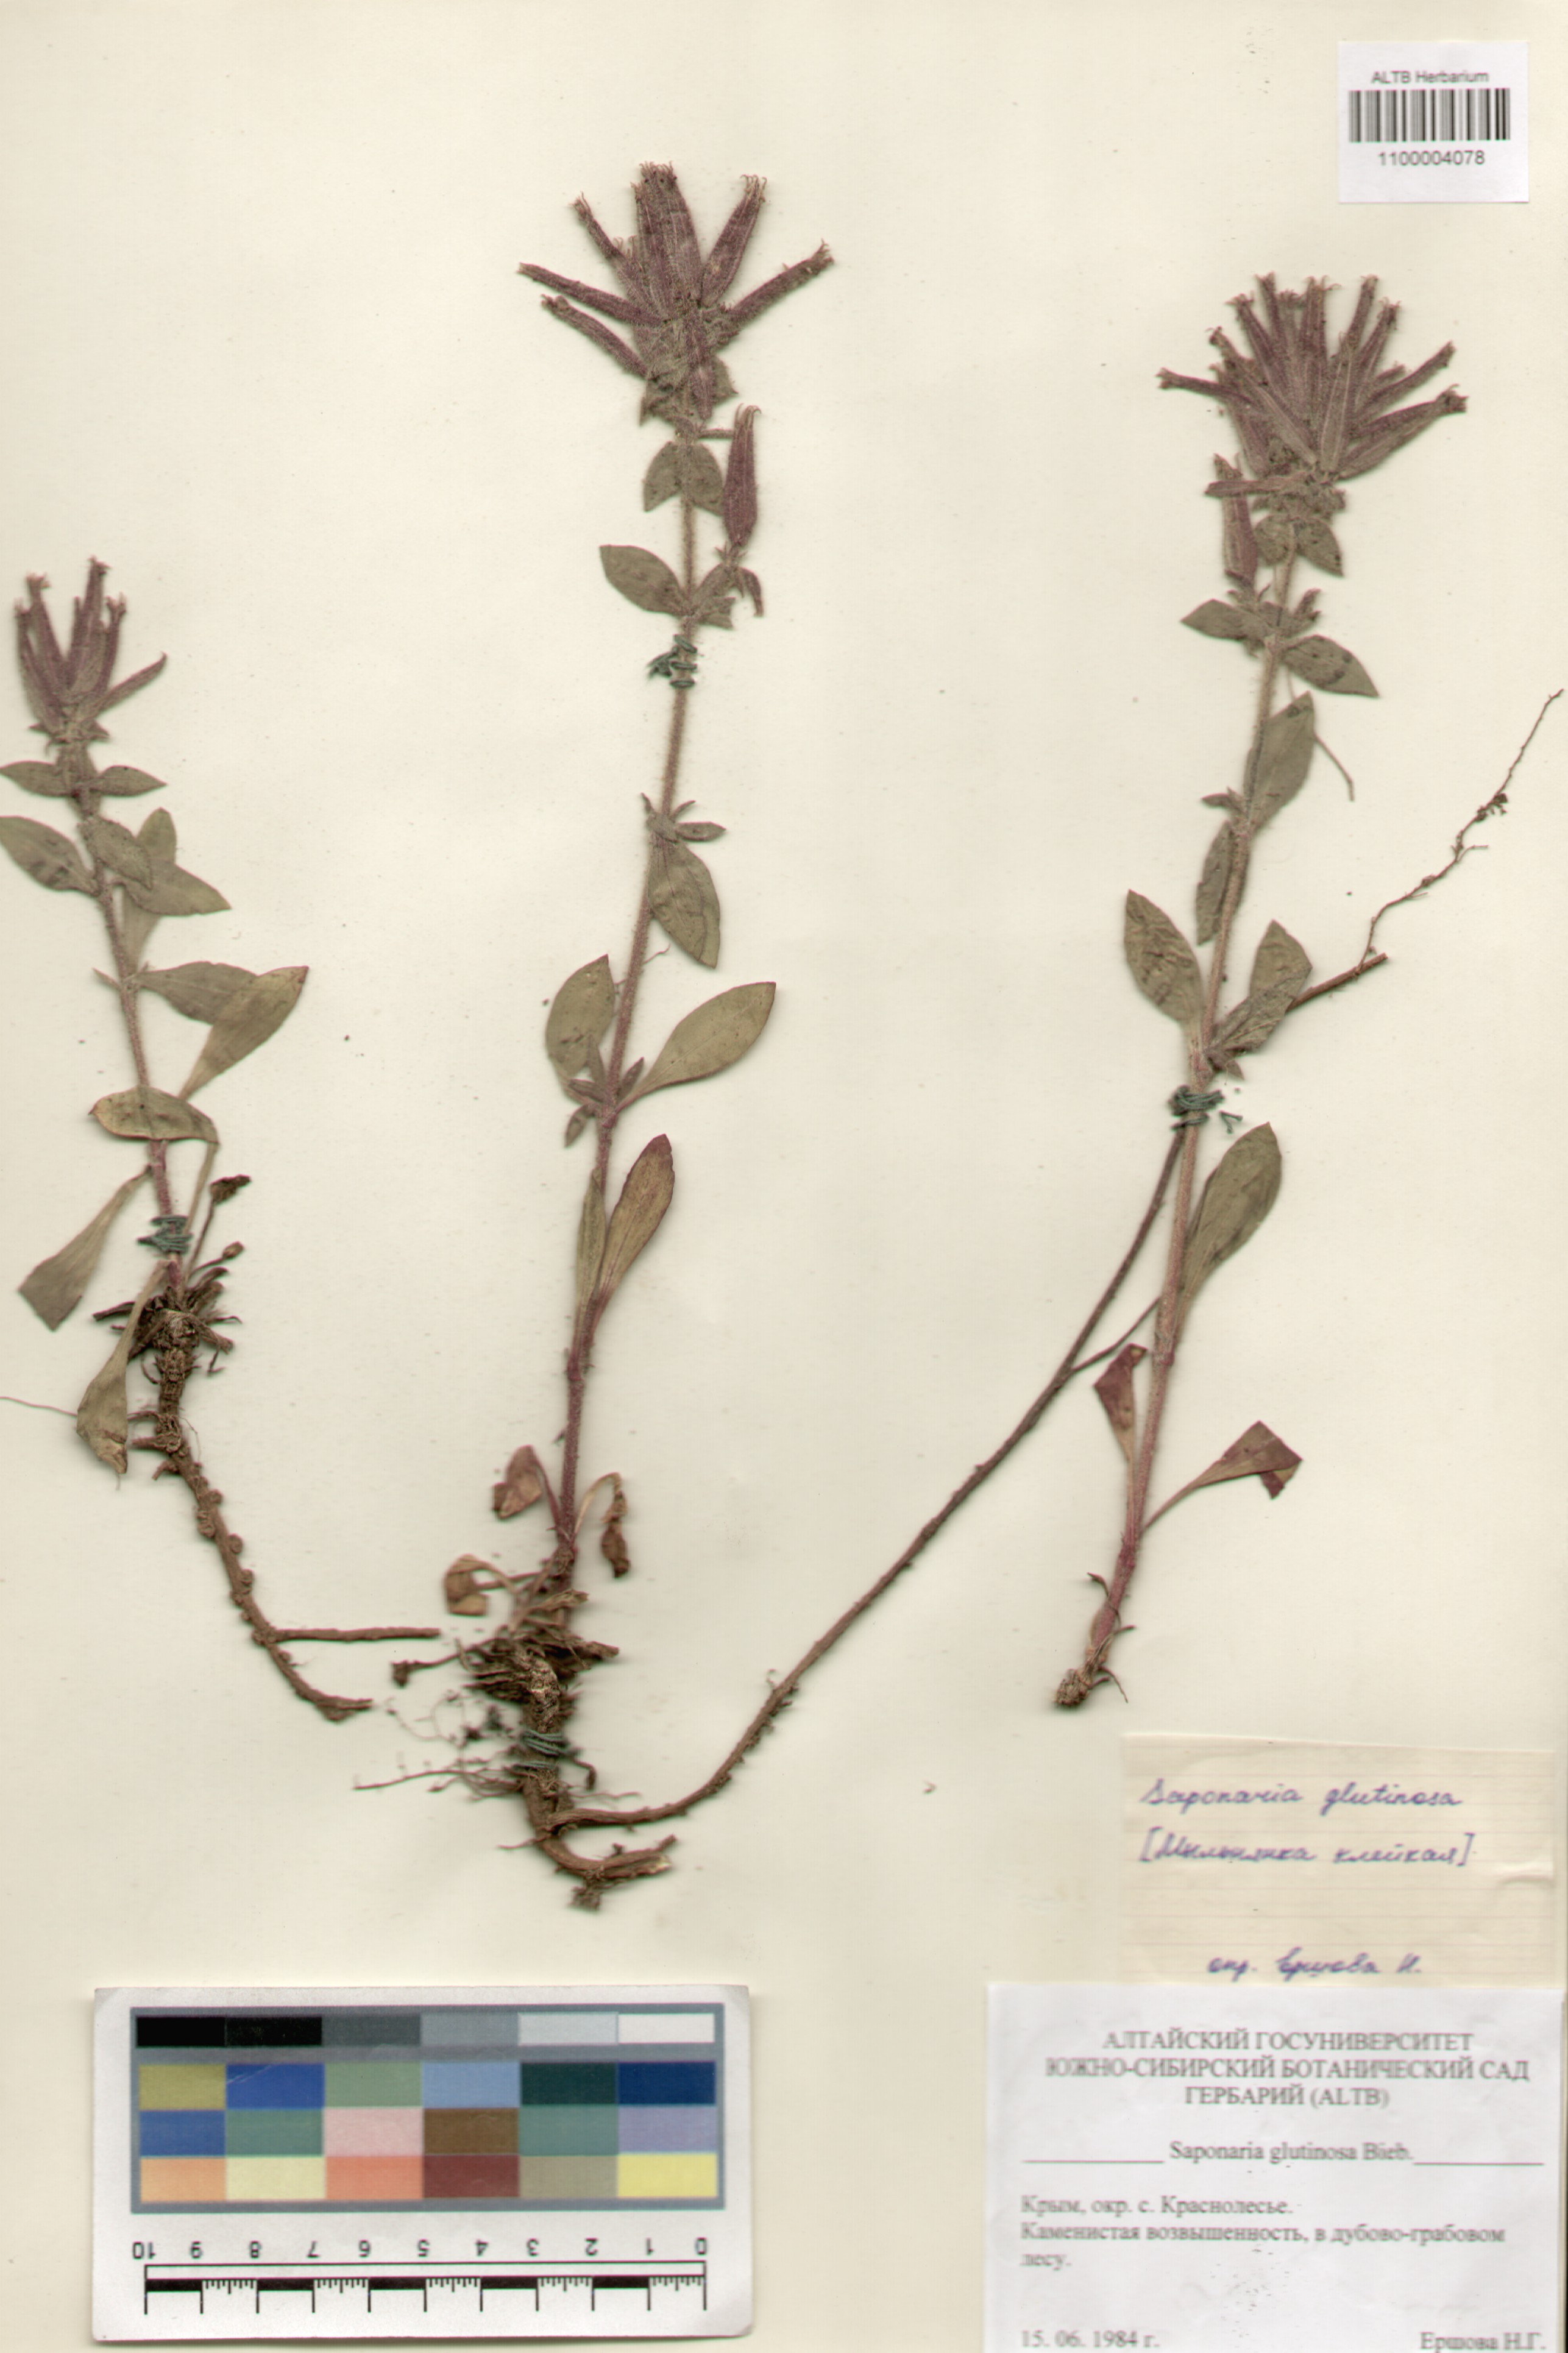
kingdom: Plantae
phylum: Tracheophyta
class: Magnoliopsida
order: Caryophyllales
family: Caryophyllaceae
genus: Saponaria
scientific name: Saponaria glutinosa
